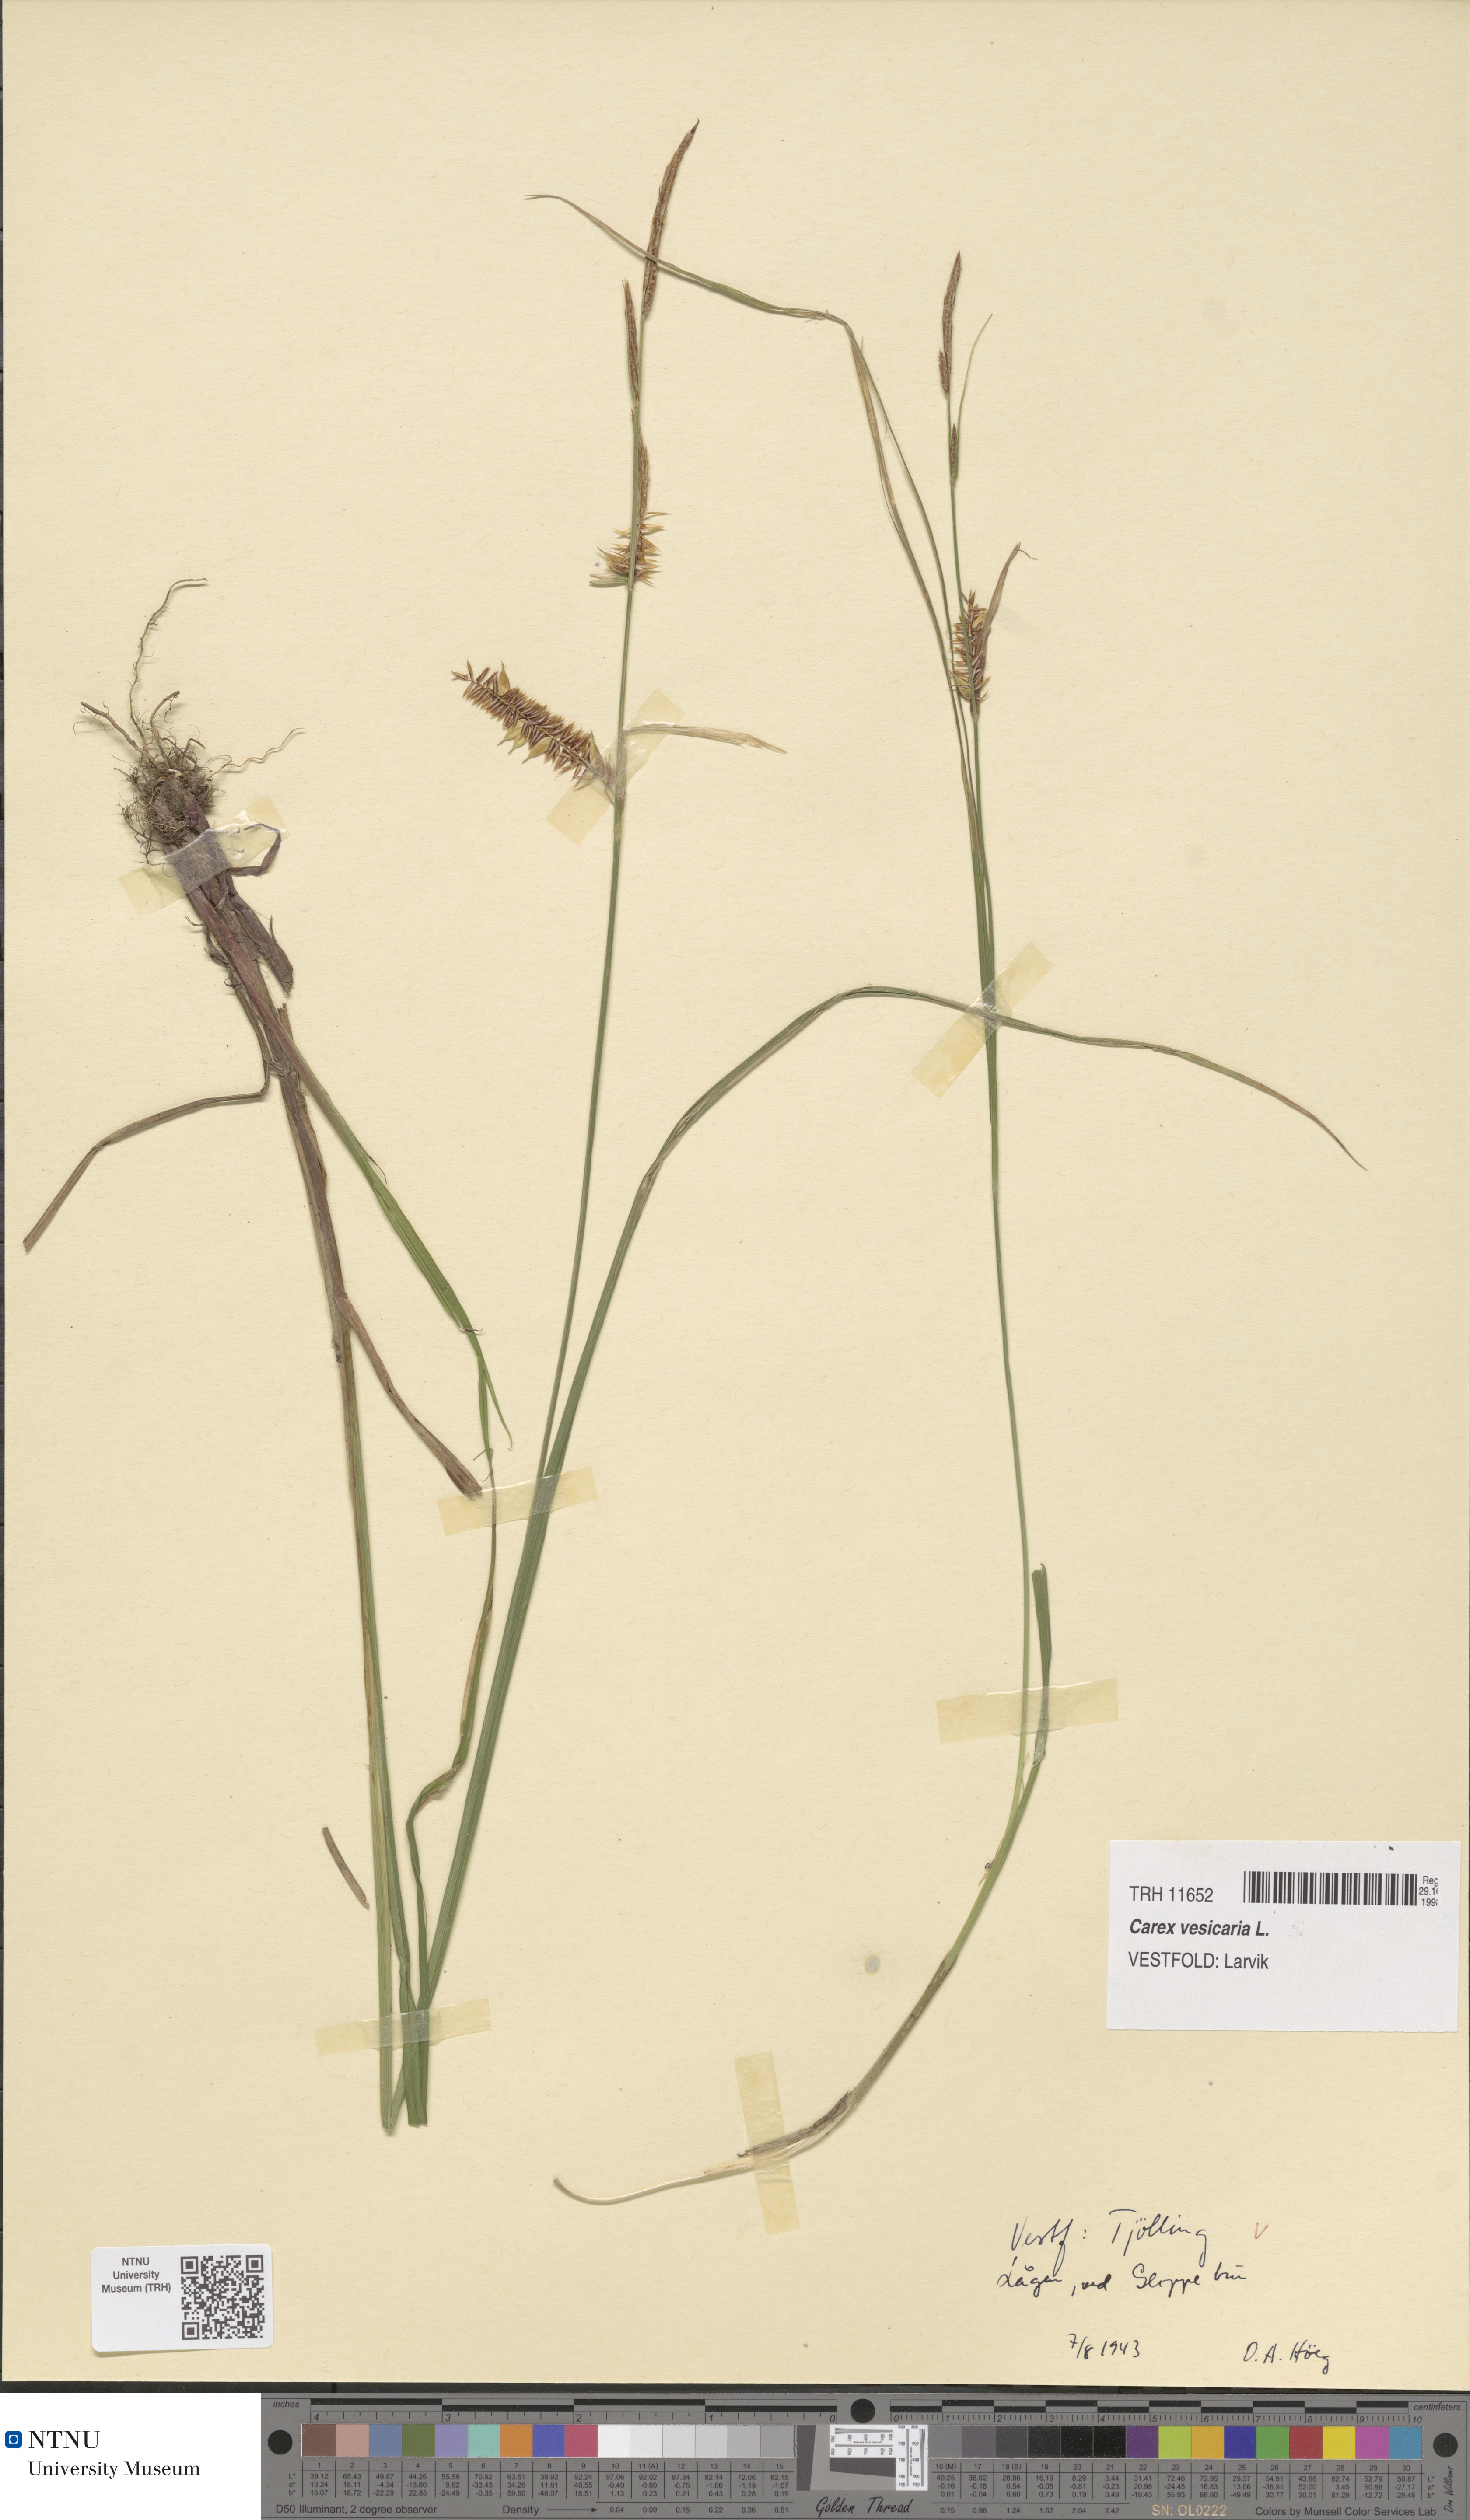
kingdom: Plantae
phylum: Tracheophyta
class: Liliopsida
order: Poales
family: Cyperaceae
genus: Carex
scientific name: Carex vesicaria
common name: Bladder-sedge
